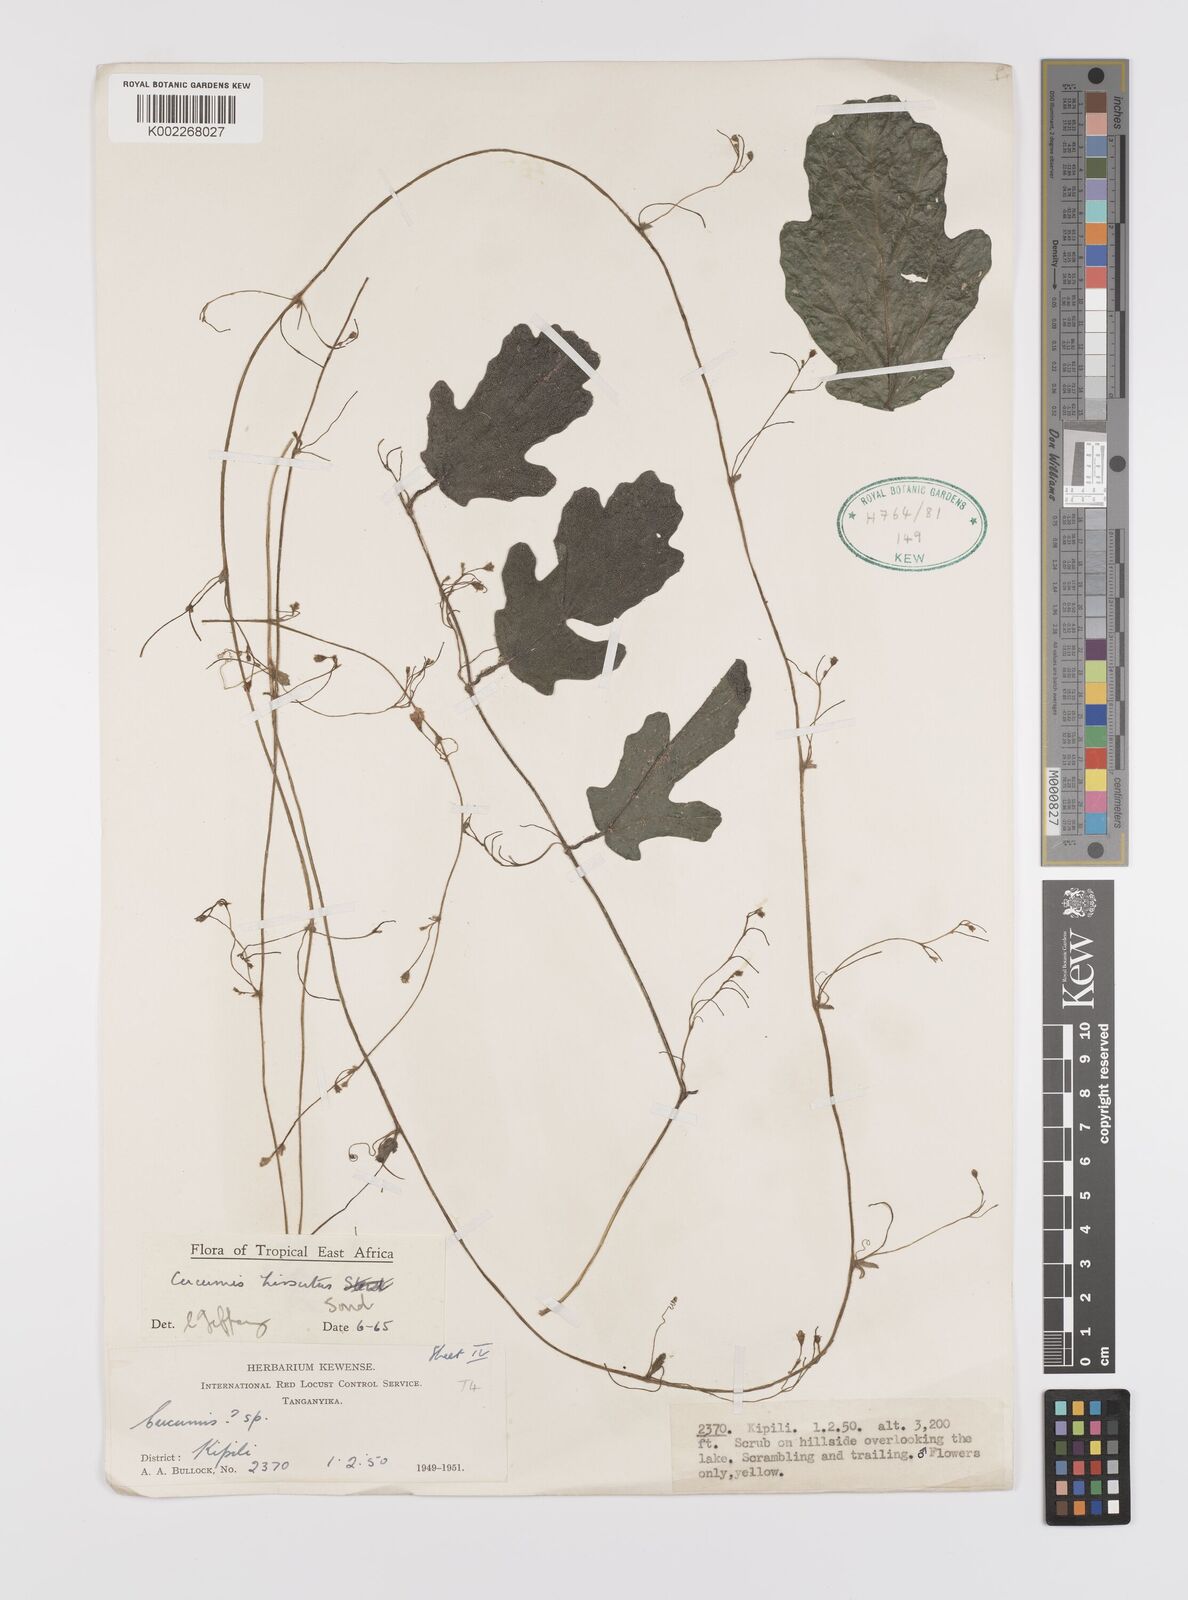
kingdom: Plantae
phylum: Tracheophyta
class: Magnoliopsida
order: Cucurbitales
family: Cucurbitaceae
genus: Cucumis
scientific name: Cucumis hirsutus
